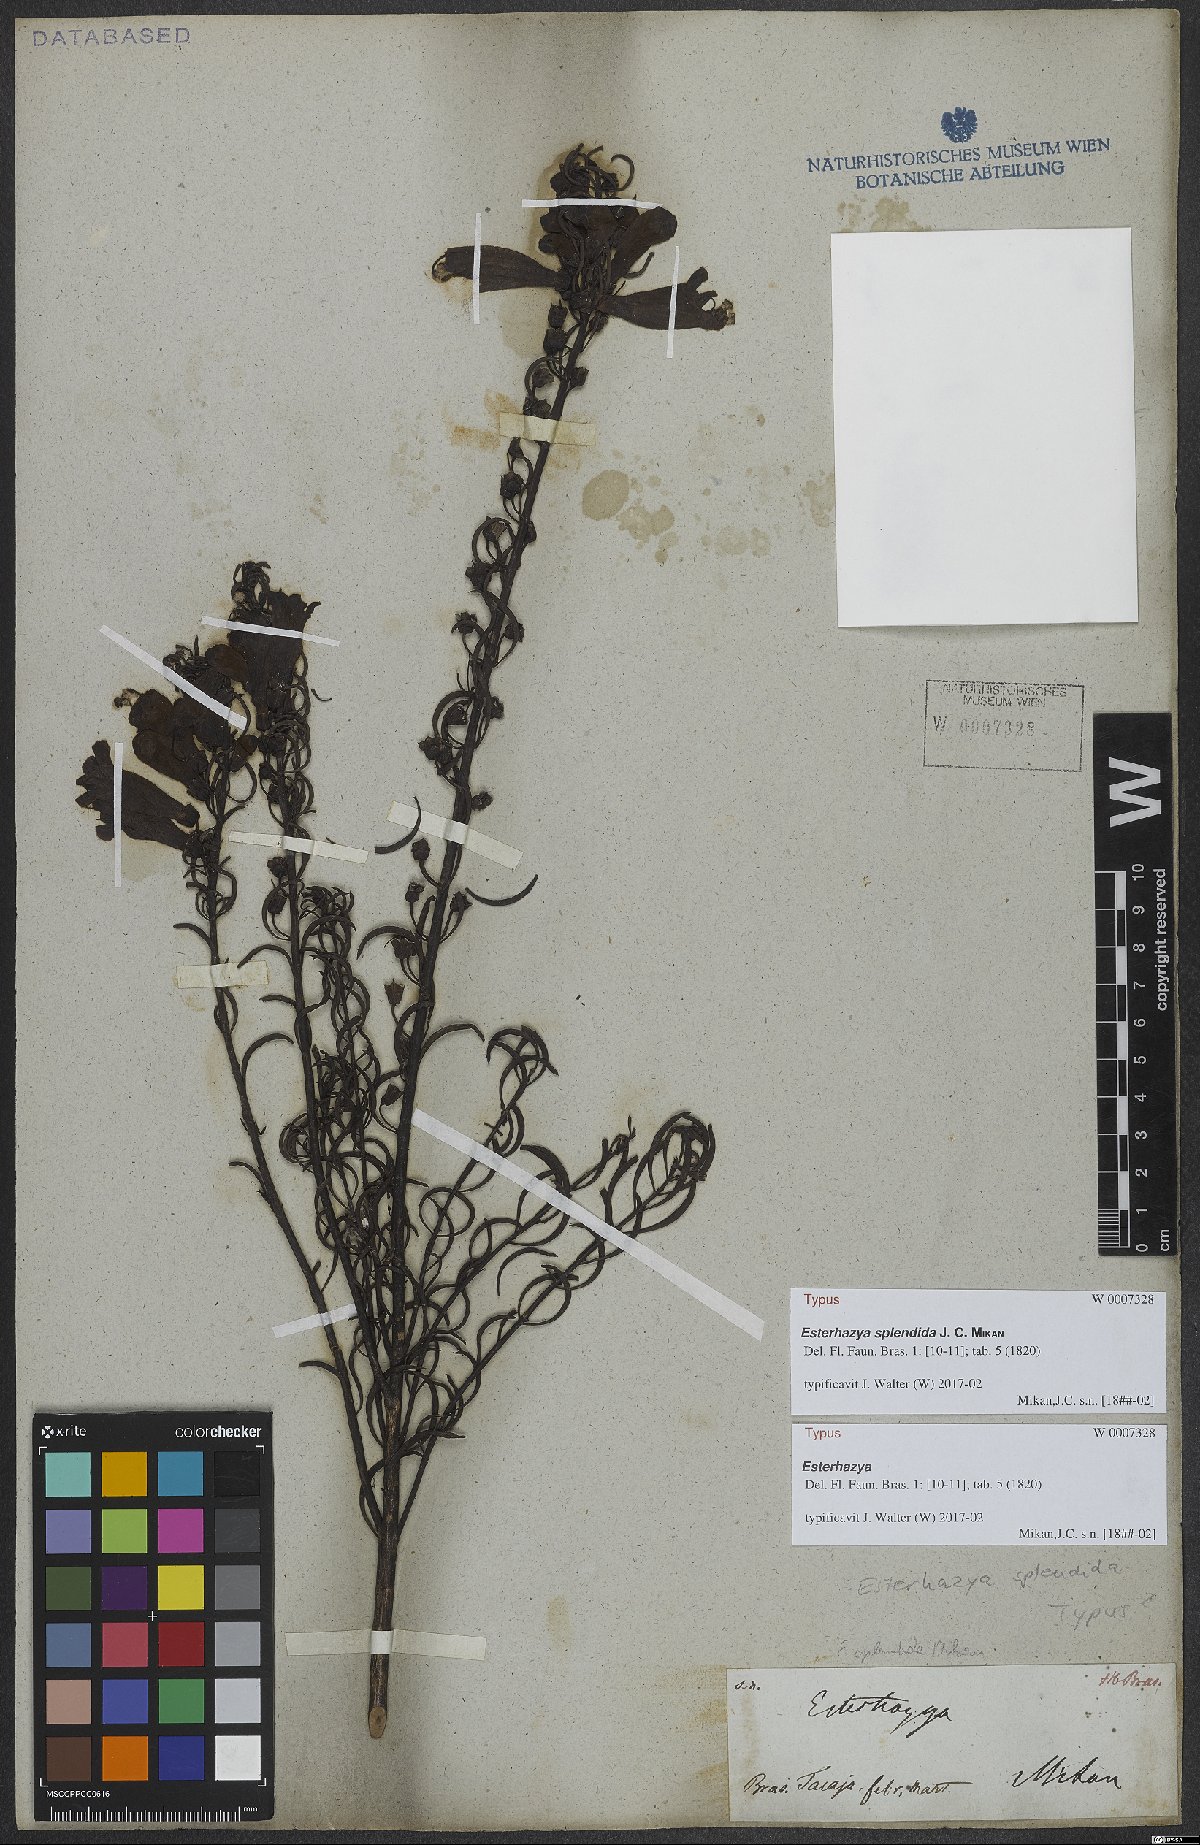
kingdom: Plantae
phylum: Tracheophyta
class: Magnoliopsida
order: Lamiales
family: Orobanchaceae
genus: Esterhazya
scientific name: Esterhazya splendida
